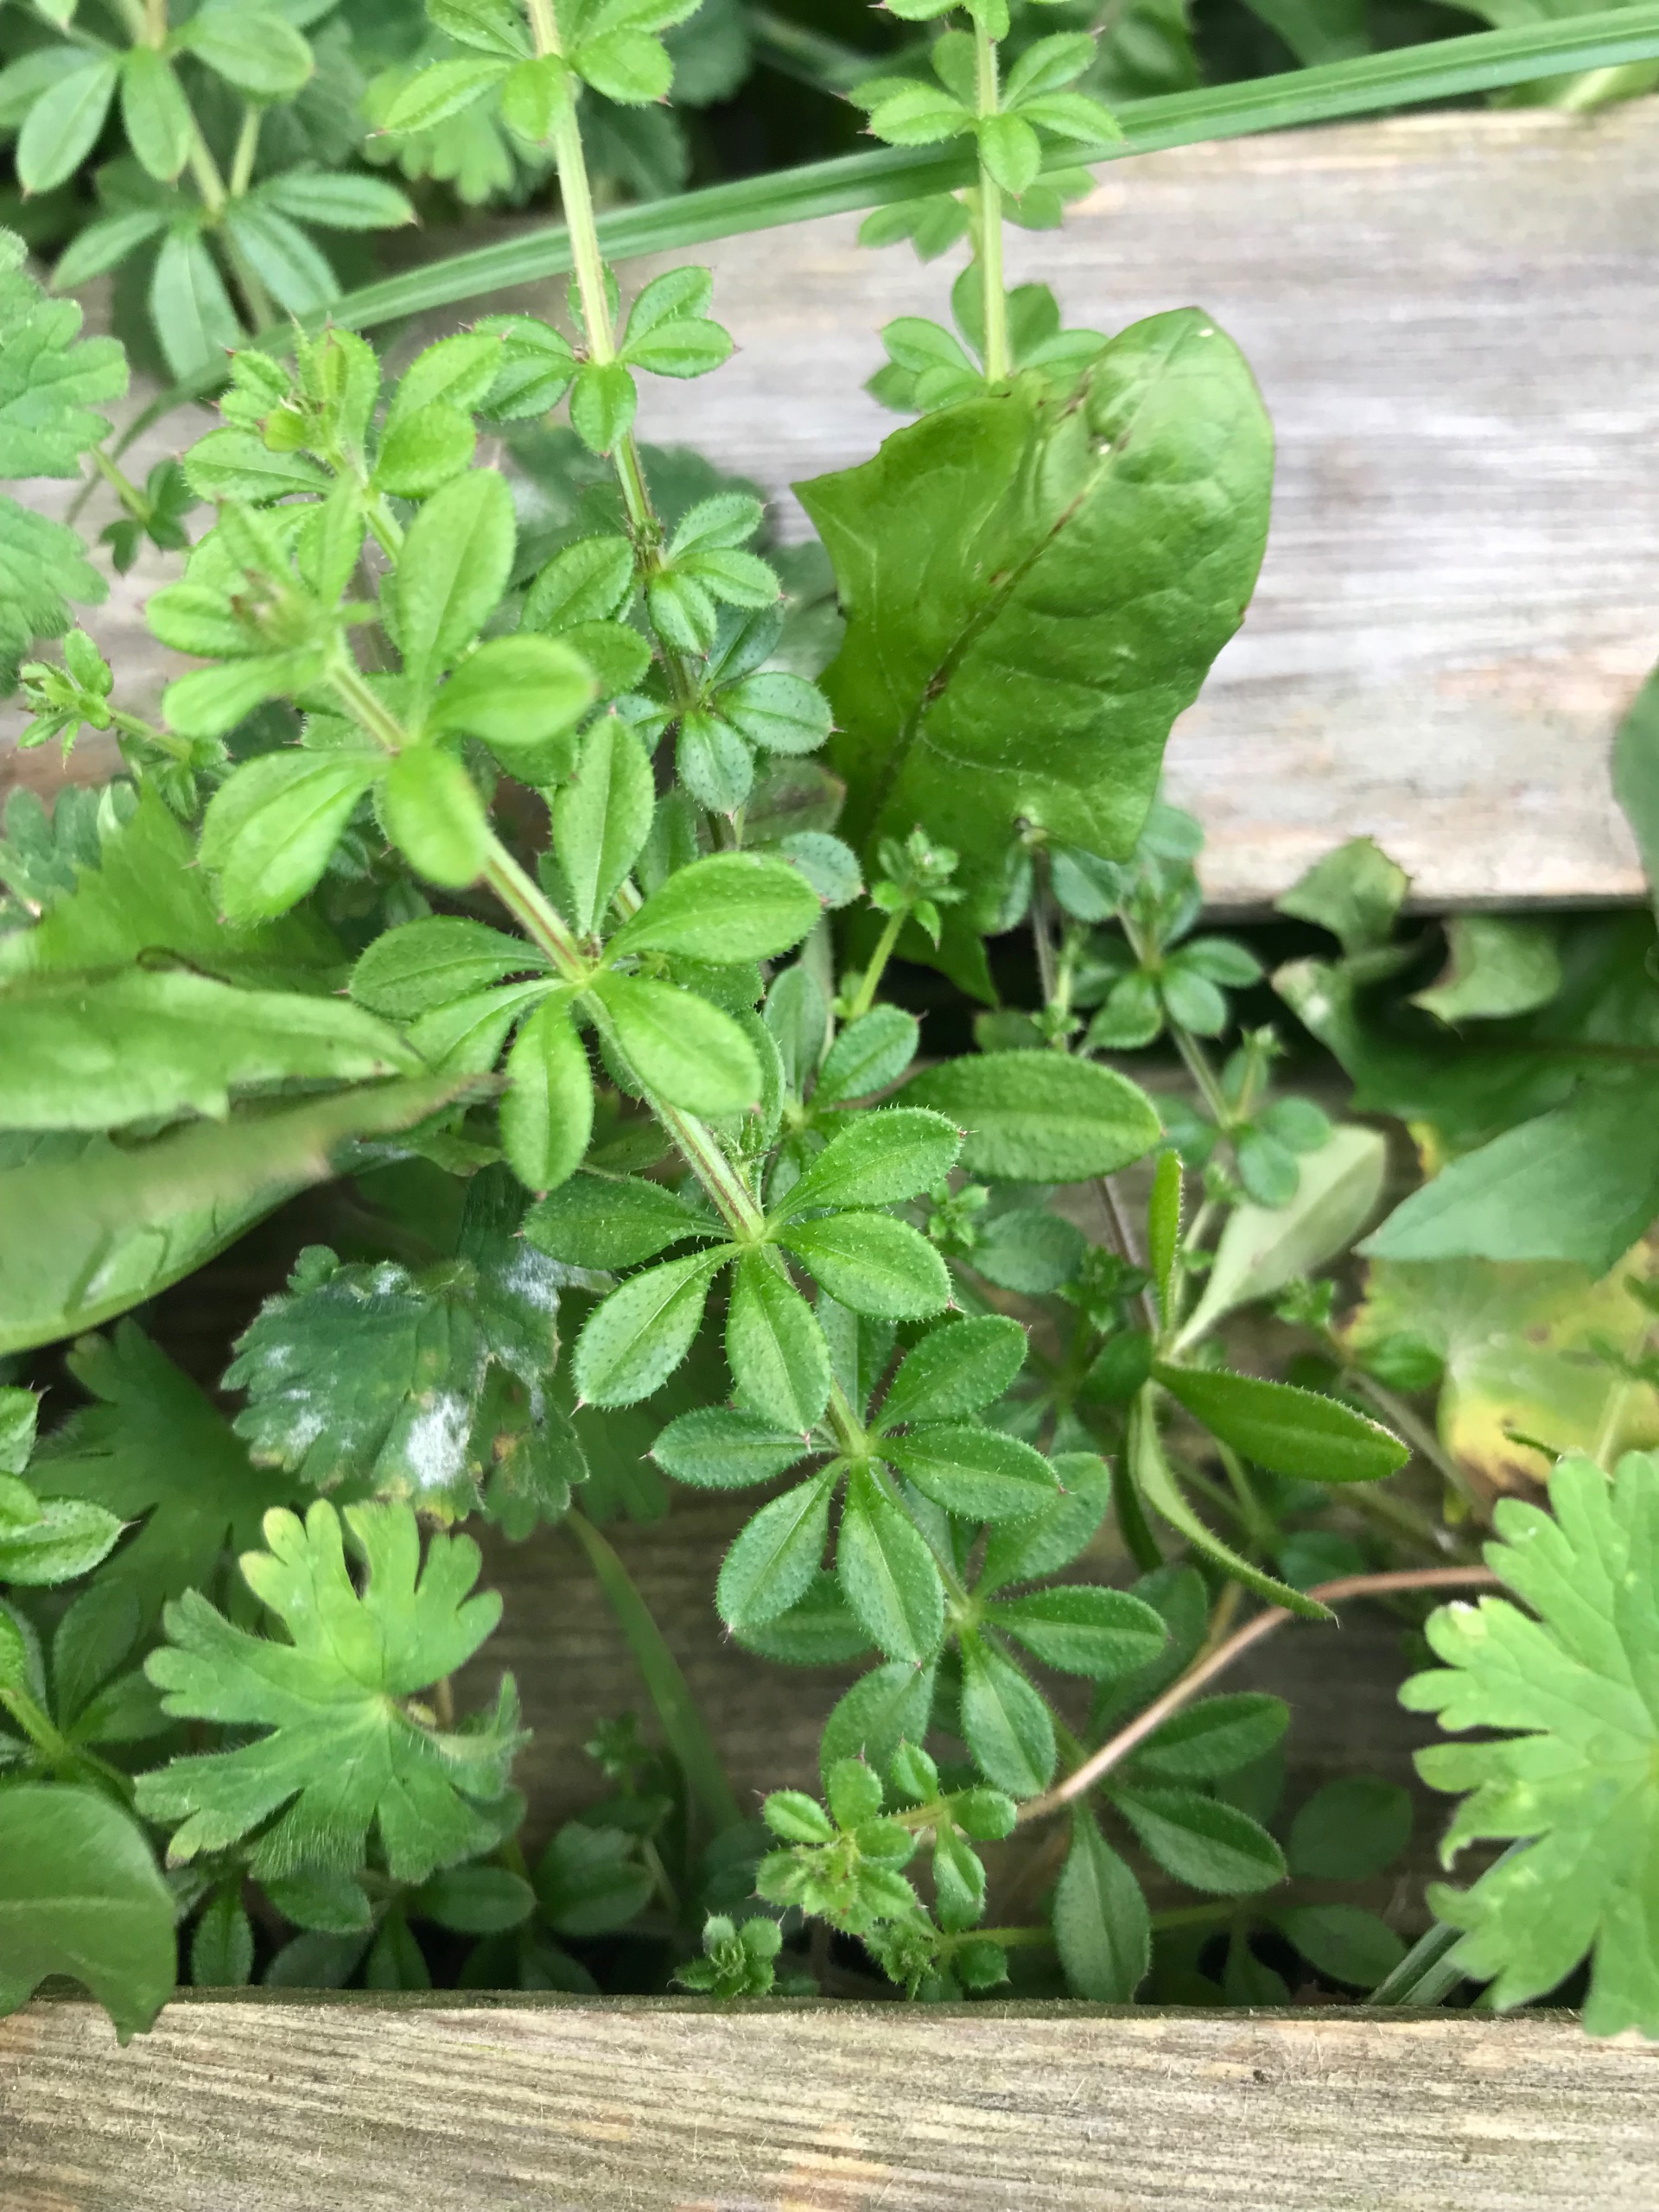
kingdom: Plantae
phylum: Tracheophyta
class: Magnoliopsida
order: Gentianales
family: Rubiaceae
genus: Galium
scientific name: Galium aparine
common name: Burre-snerre
